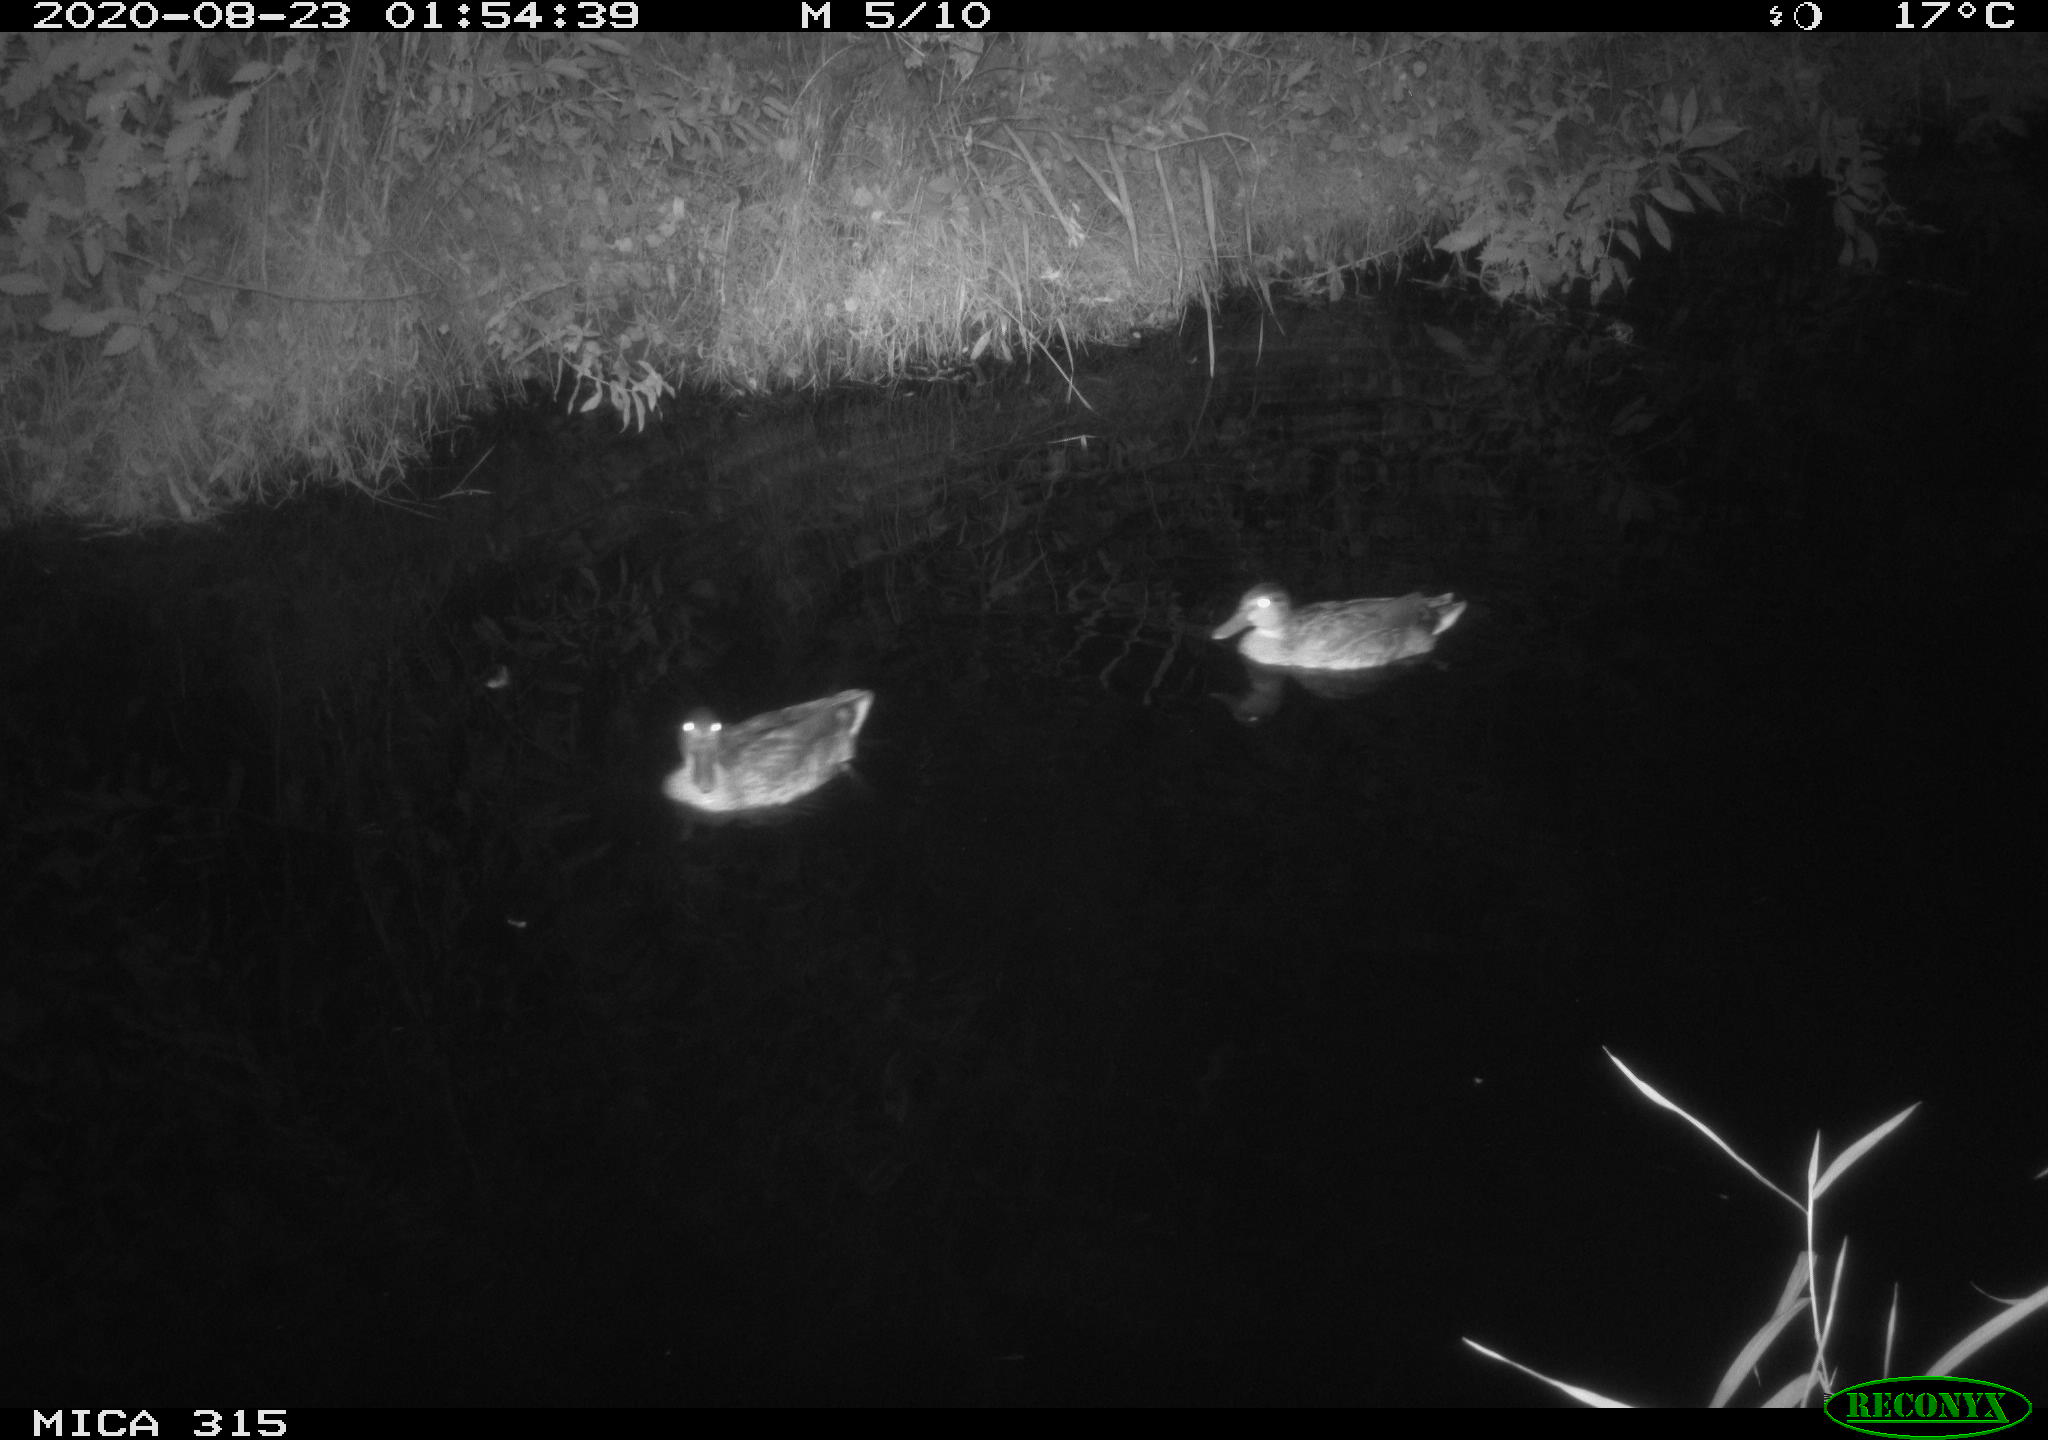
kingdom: Animalia
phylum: Chordata
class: Aves
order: Anseriformes
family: Anatidae
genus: Anas
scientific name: Anas platyrhynchos
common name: Mallard
